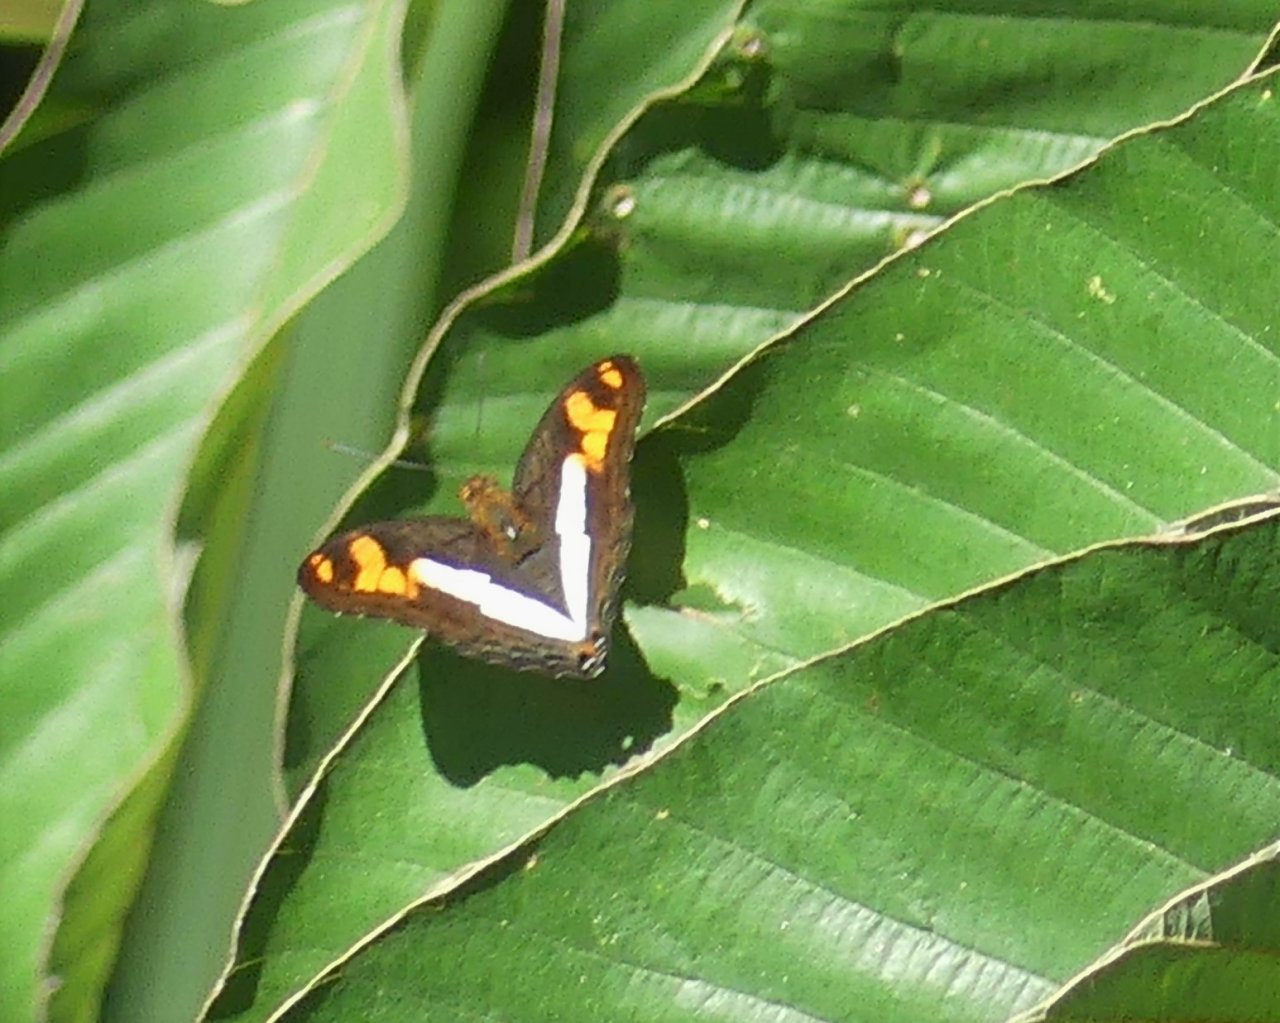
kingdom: Animalia
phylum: Arthropoda
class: Insecta
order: Lepidoptera
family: Nymphalidae
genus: Limenitis
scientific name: Limenitis malea
